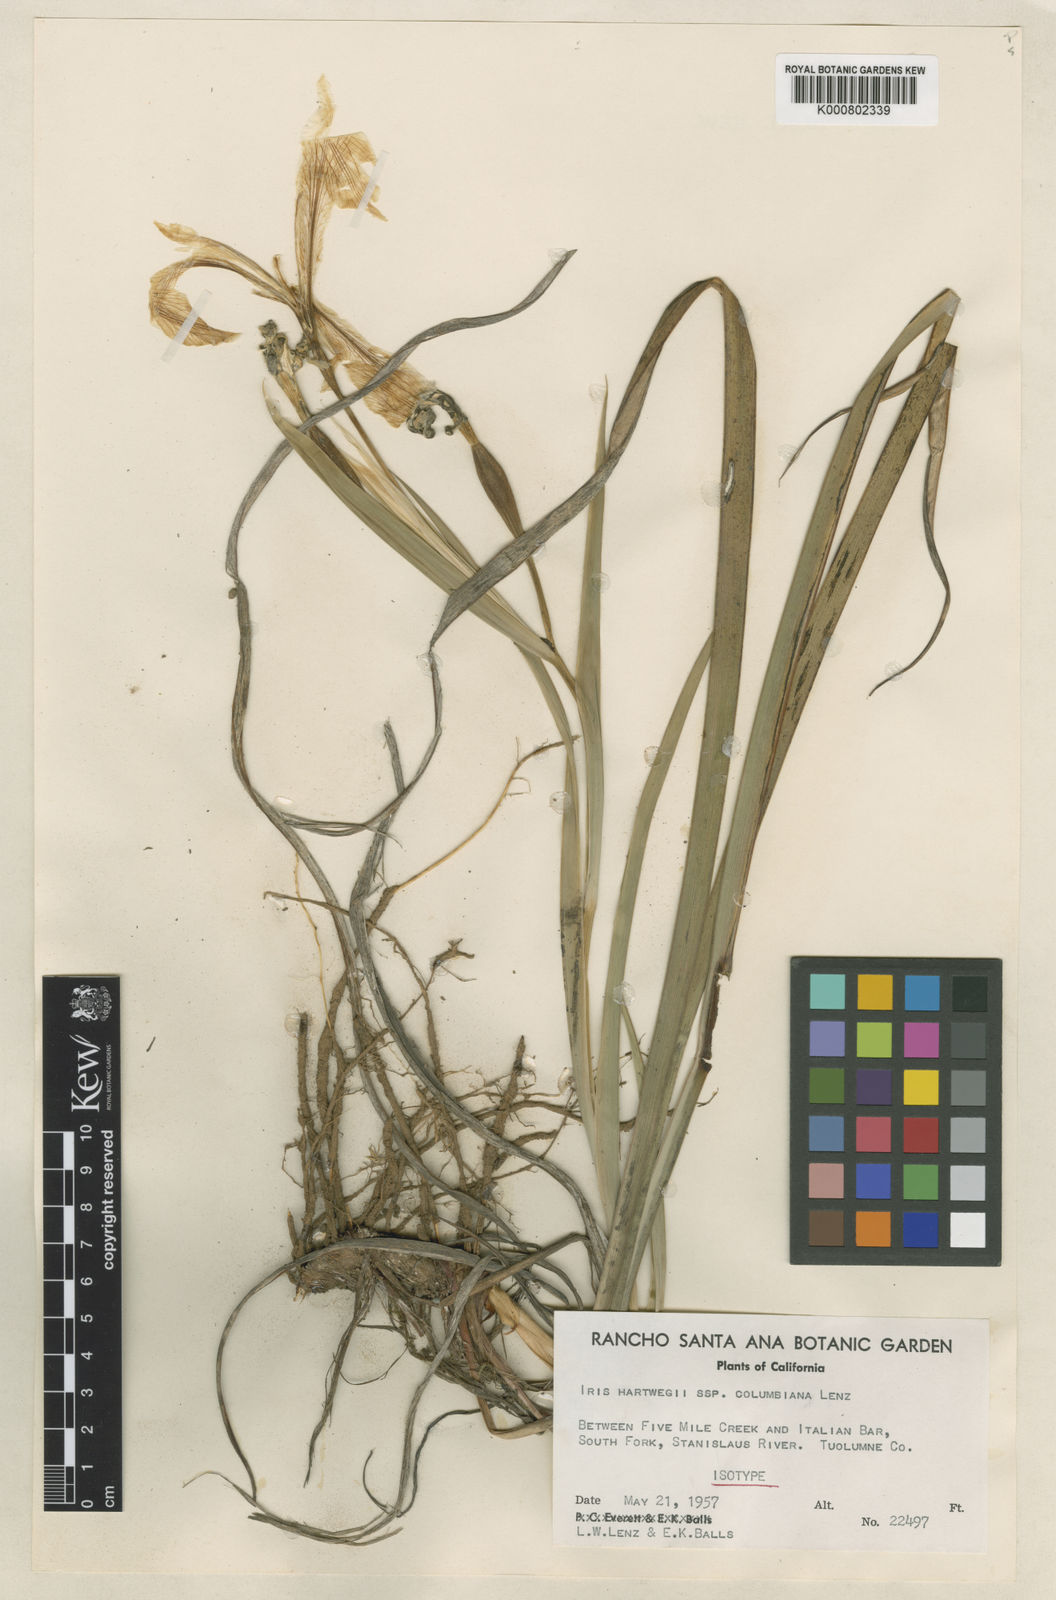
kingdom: Plantae
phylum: Tracheophyta
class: Liliopsida
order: Asparagales
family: Iridaceae
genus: Iris
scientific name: Iris hartwegii
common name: Sierra iris
